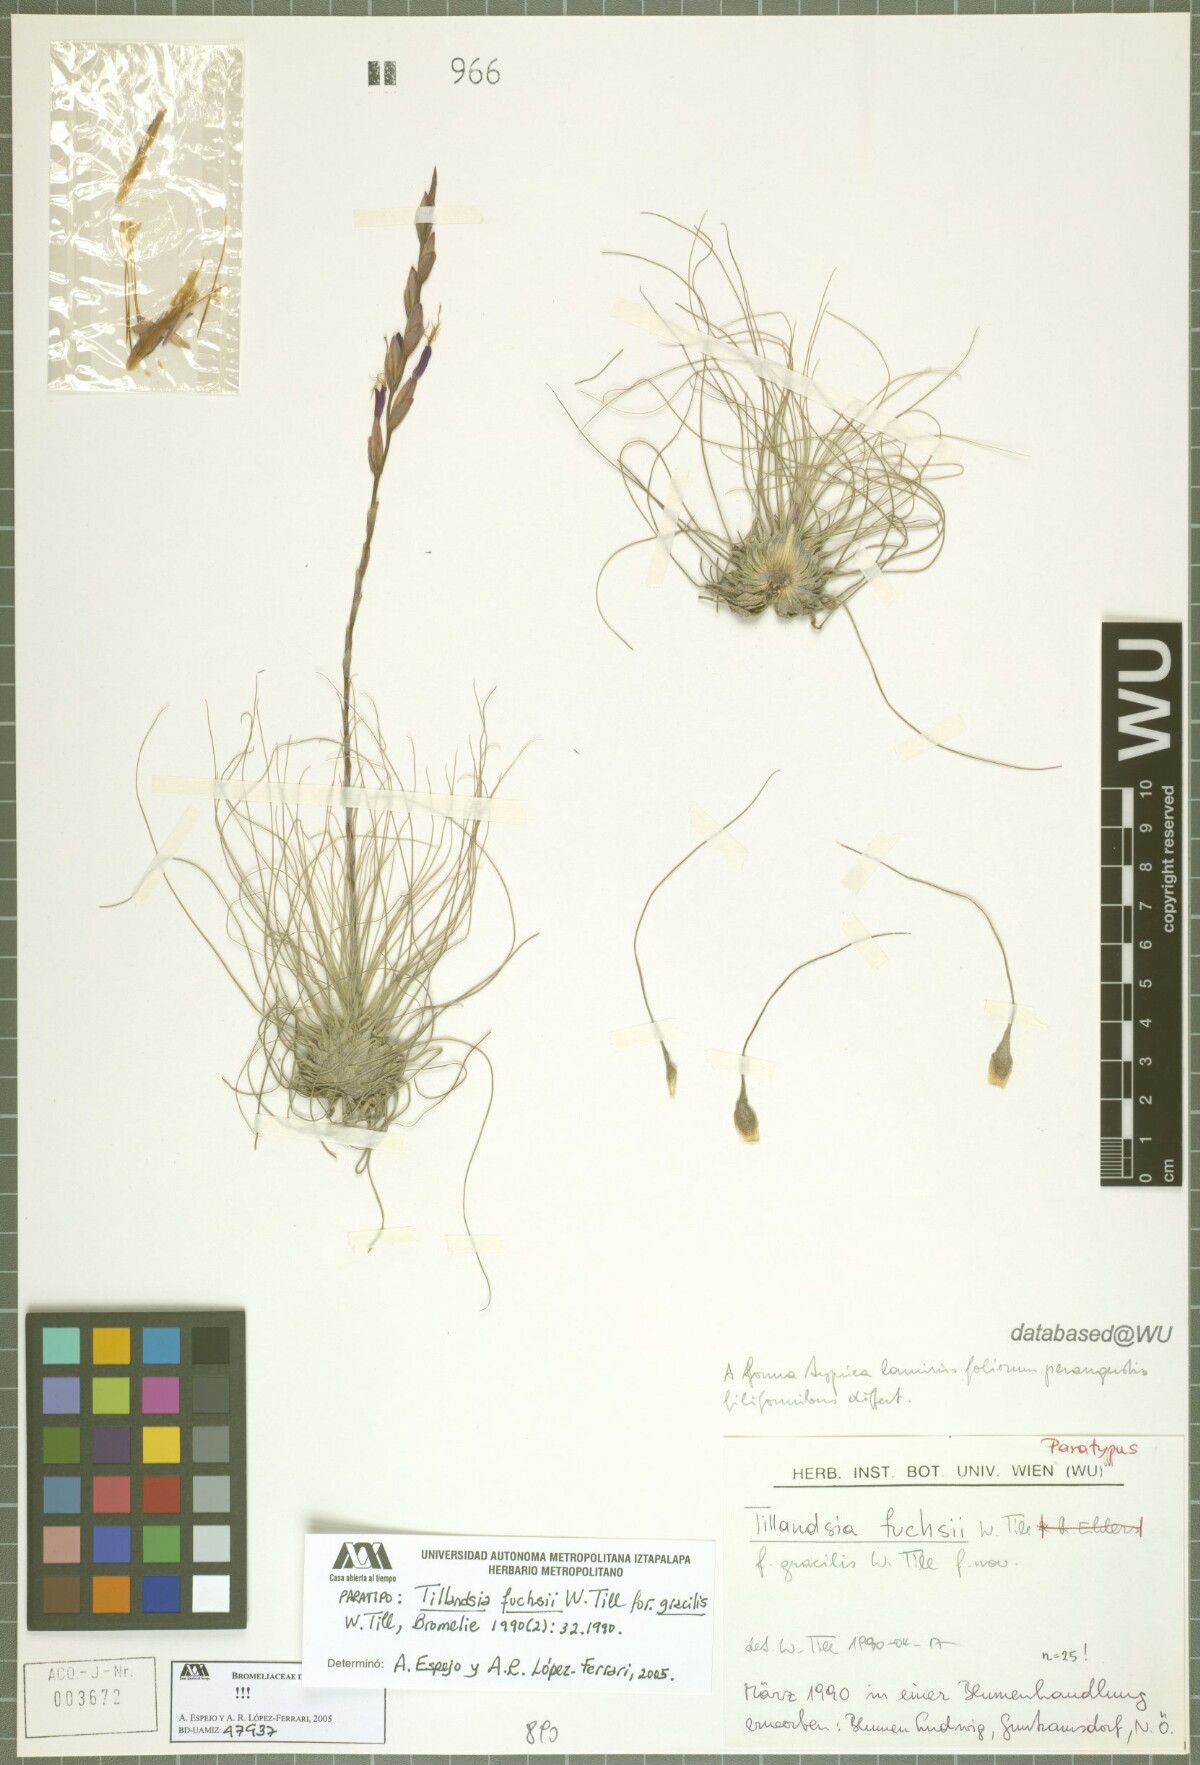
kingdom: Plantae
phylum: Tracheophyta
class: Liliopsida
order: Poales
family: Bromeliaceae
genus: Tillandsia
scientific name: Tillandsia fuchsii
